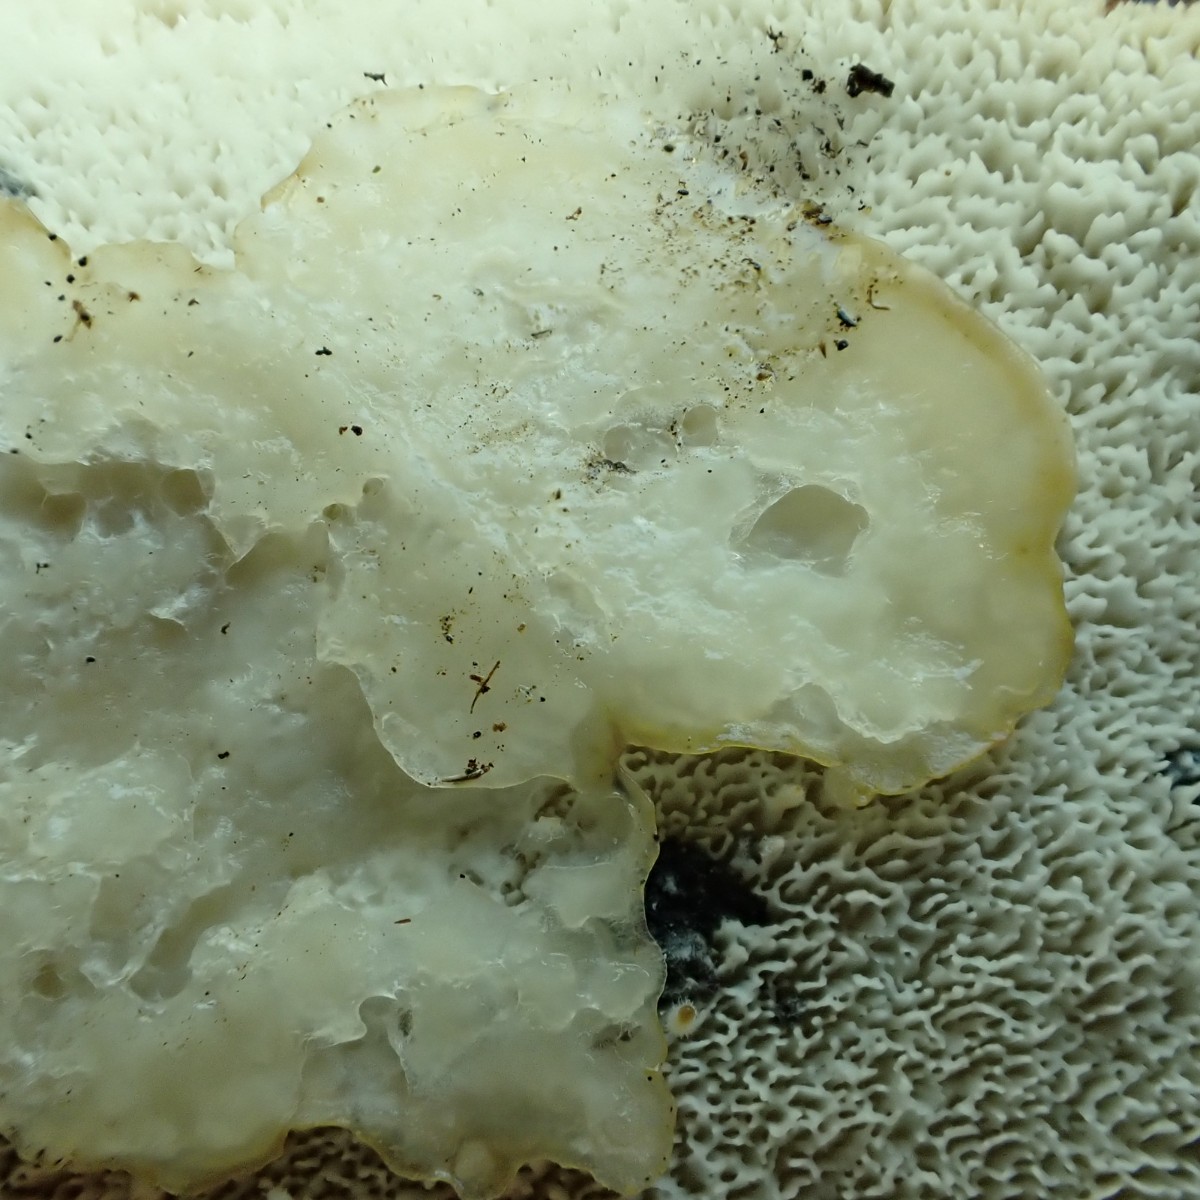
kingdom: Fungi
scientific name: Fungi
